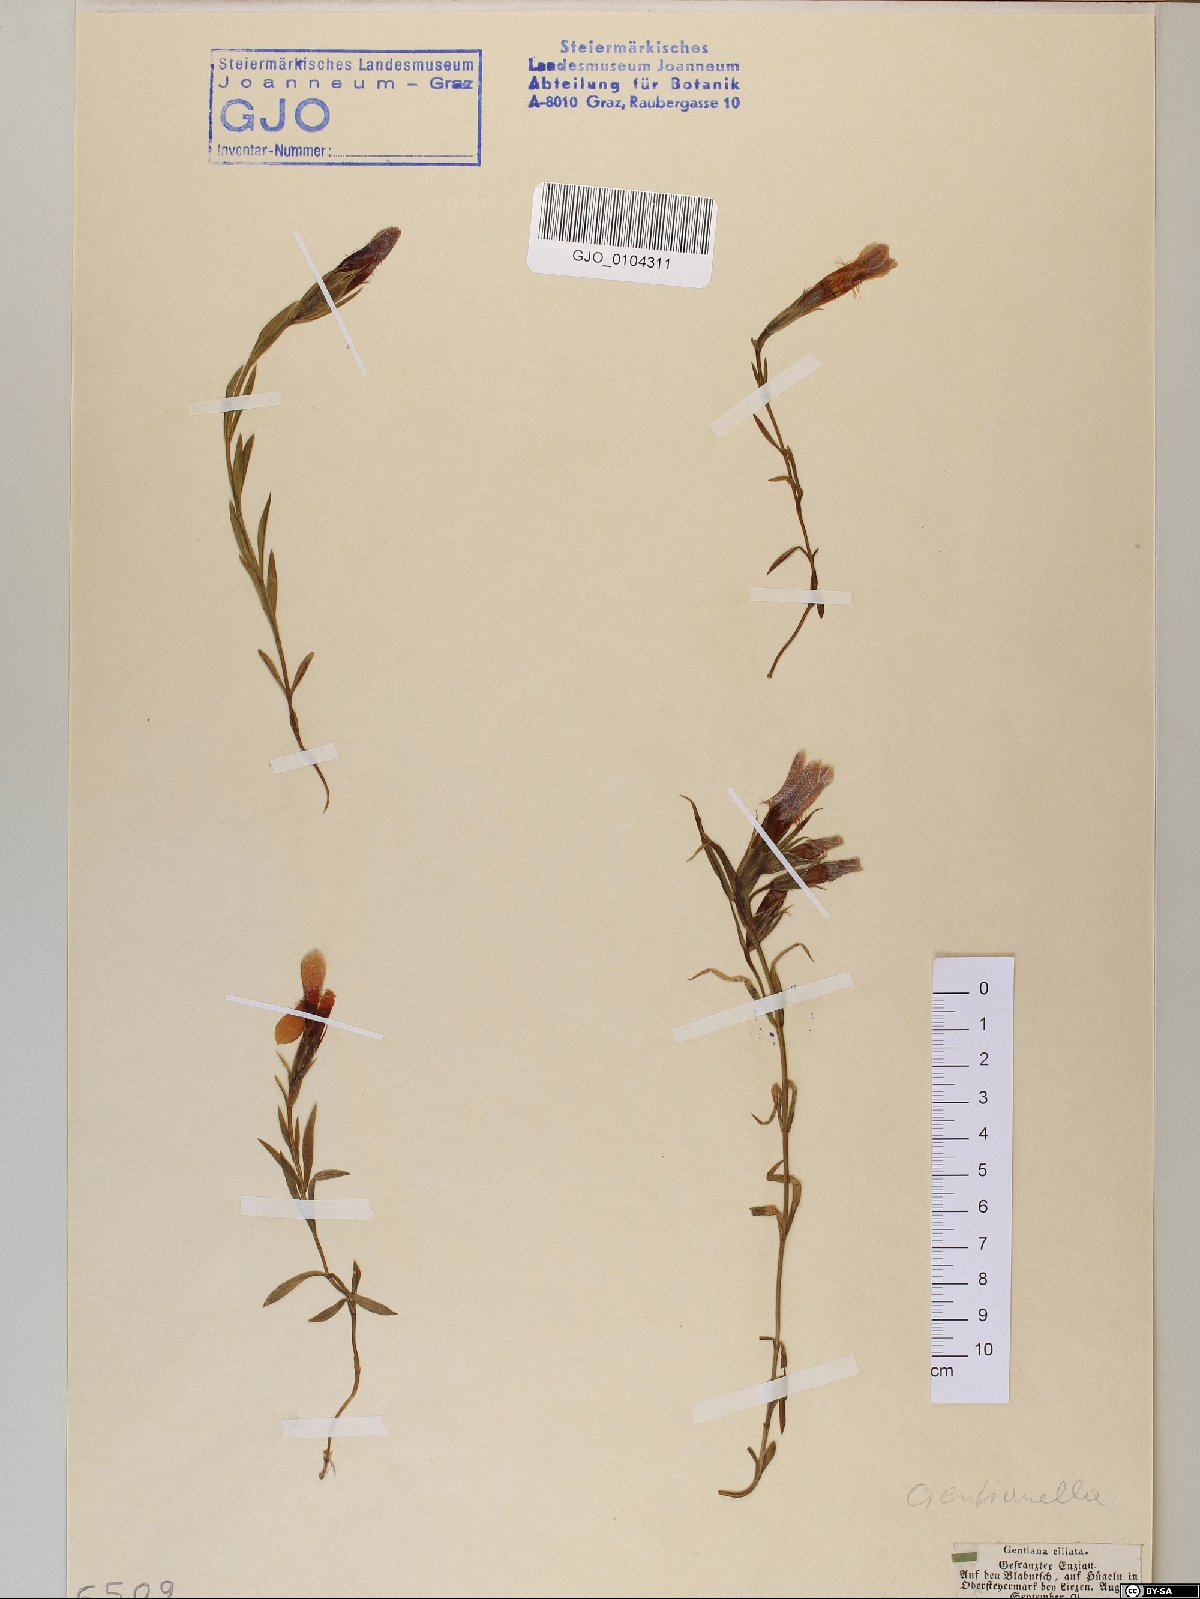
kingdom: Plantae
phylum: Tracheophyta
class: Magnoliopsida
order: Gentianales
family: Gentianaceae
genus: Gentianopsis
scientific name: Gentianopsis ciliata
